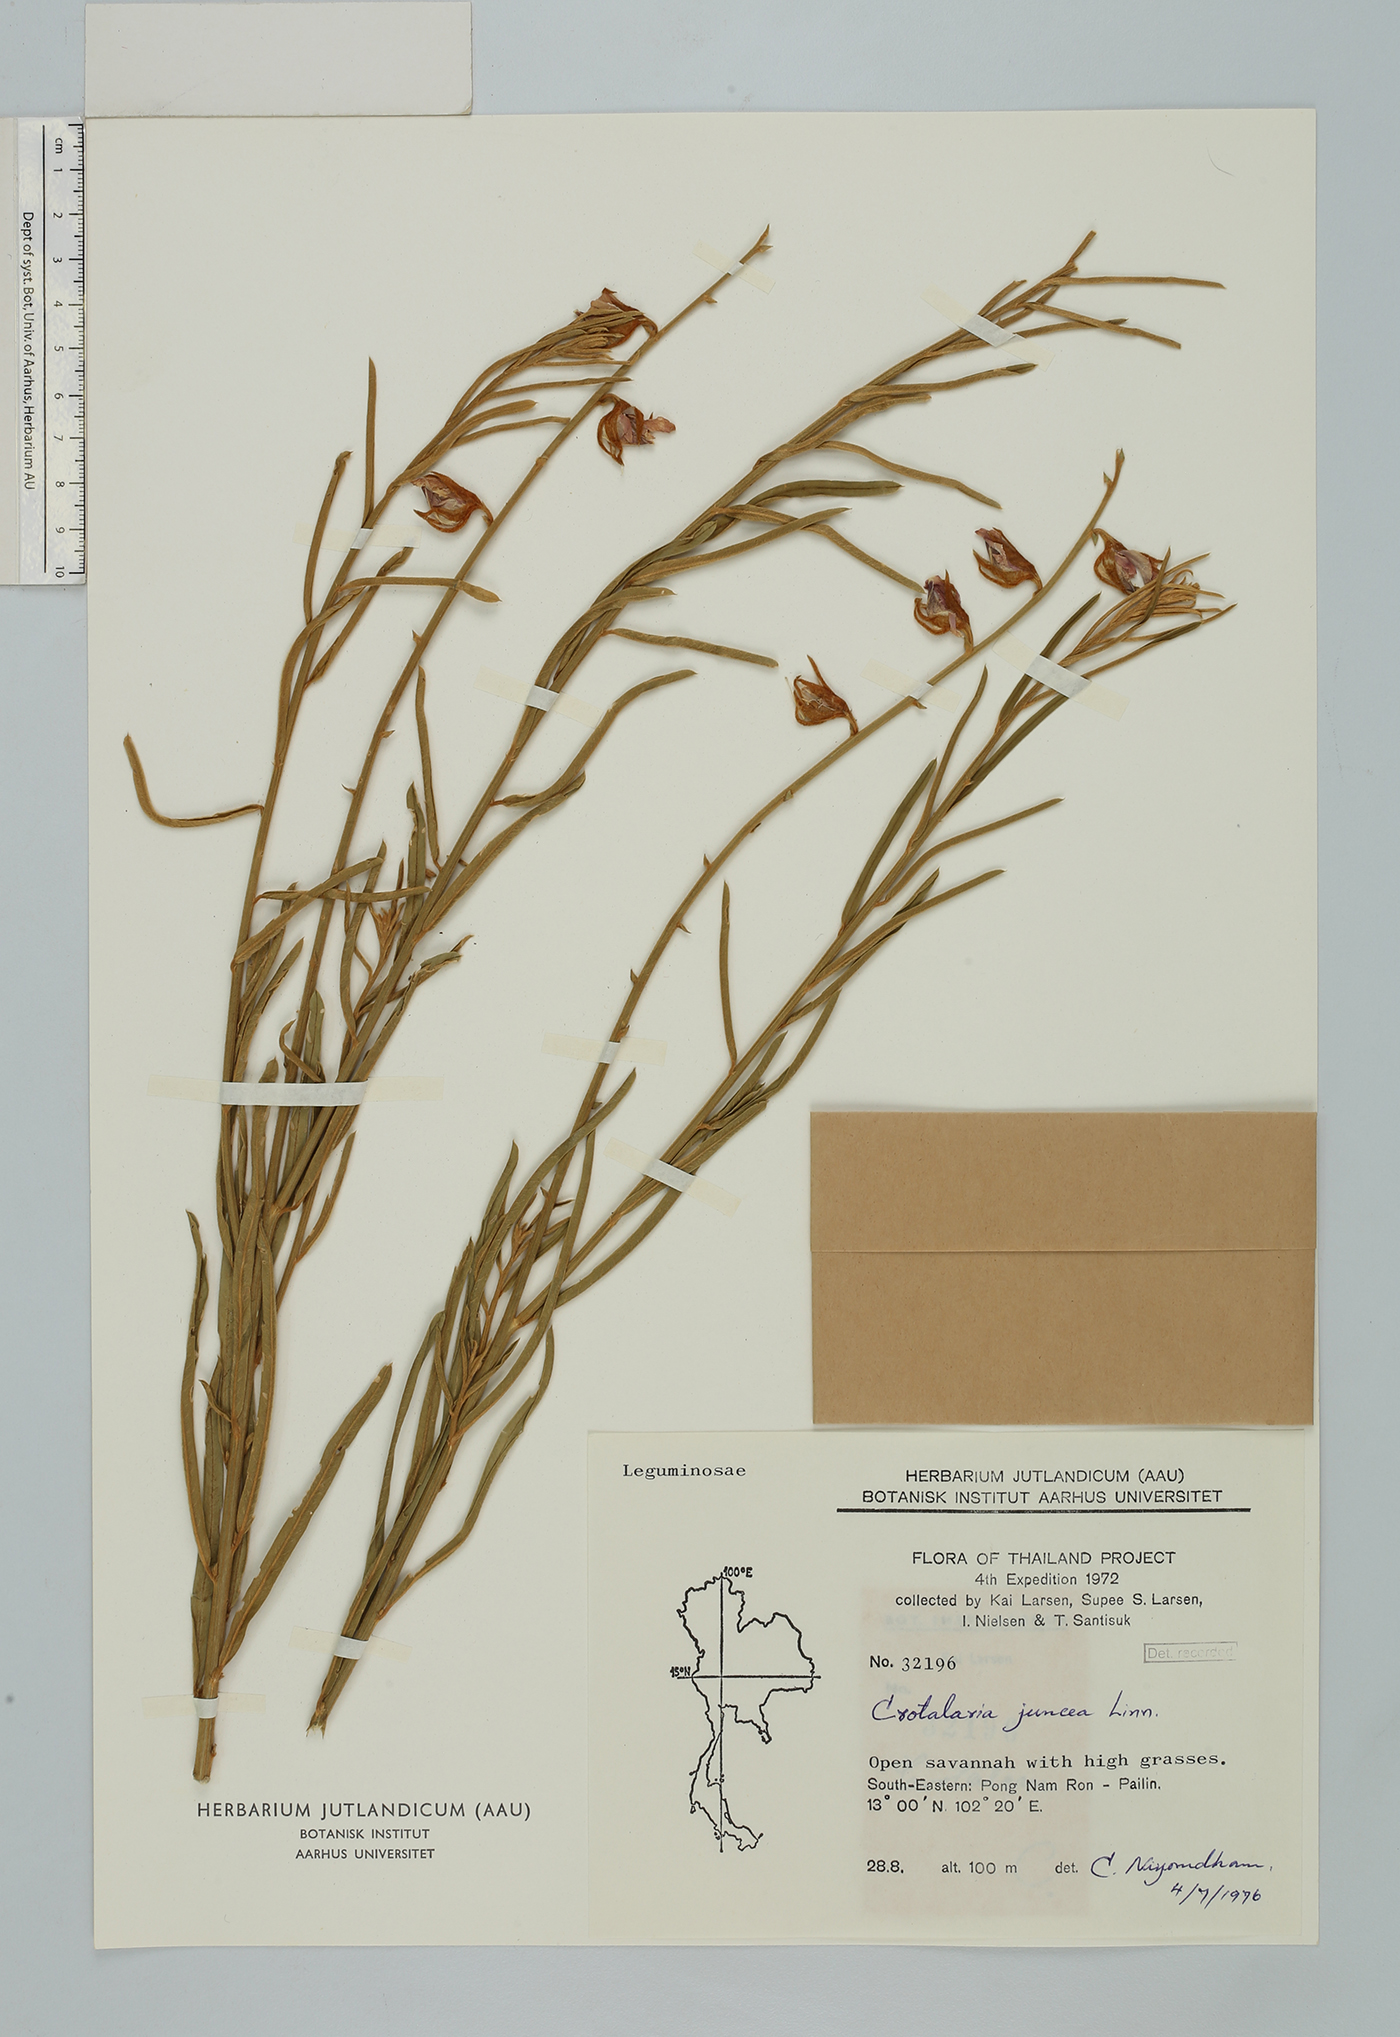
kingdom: Plantae
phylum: Tracheophyta
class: Magnoliopsida
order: Fabales
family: Fabaceae
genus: Crotalaria
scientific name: Crotalaria juncea
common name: Sunn hemp
